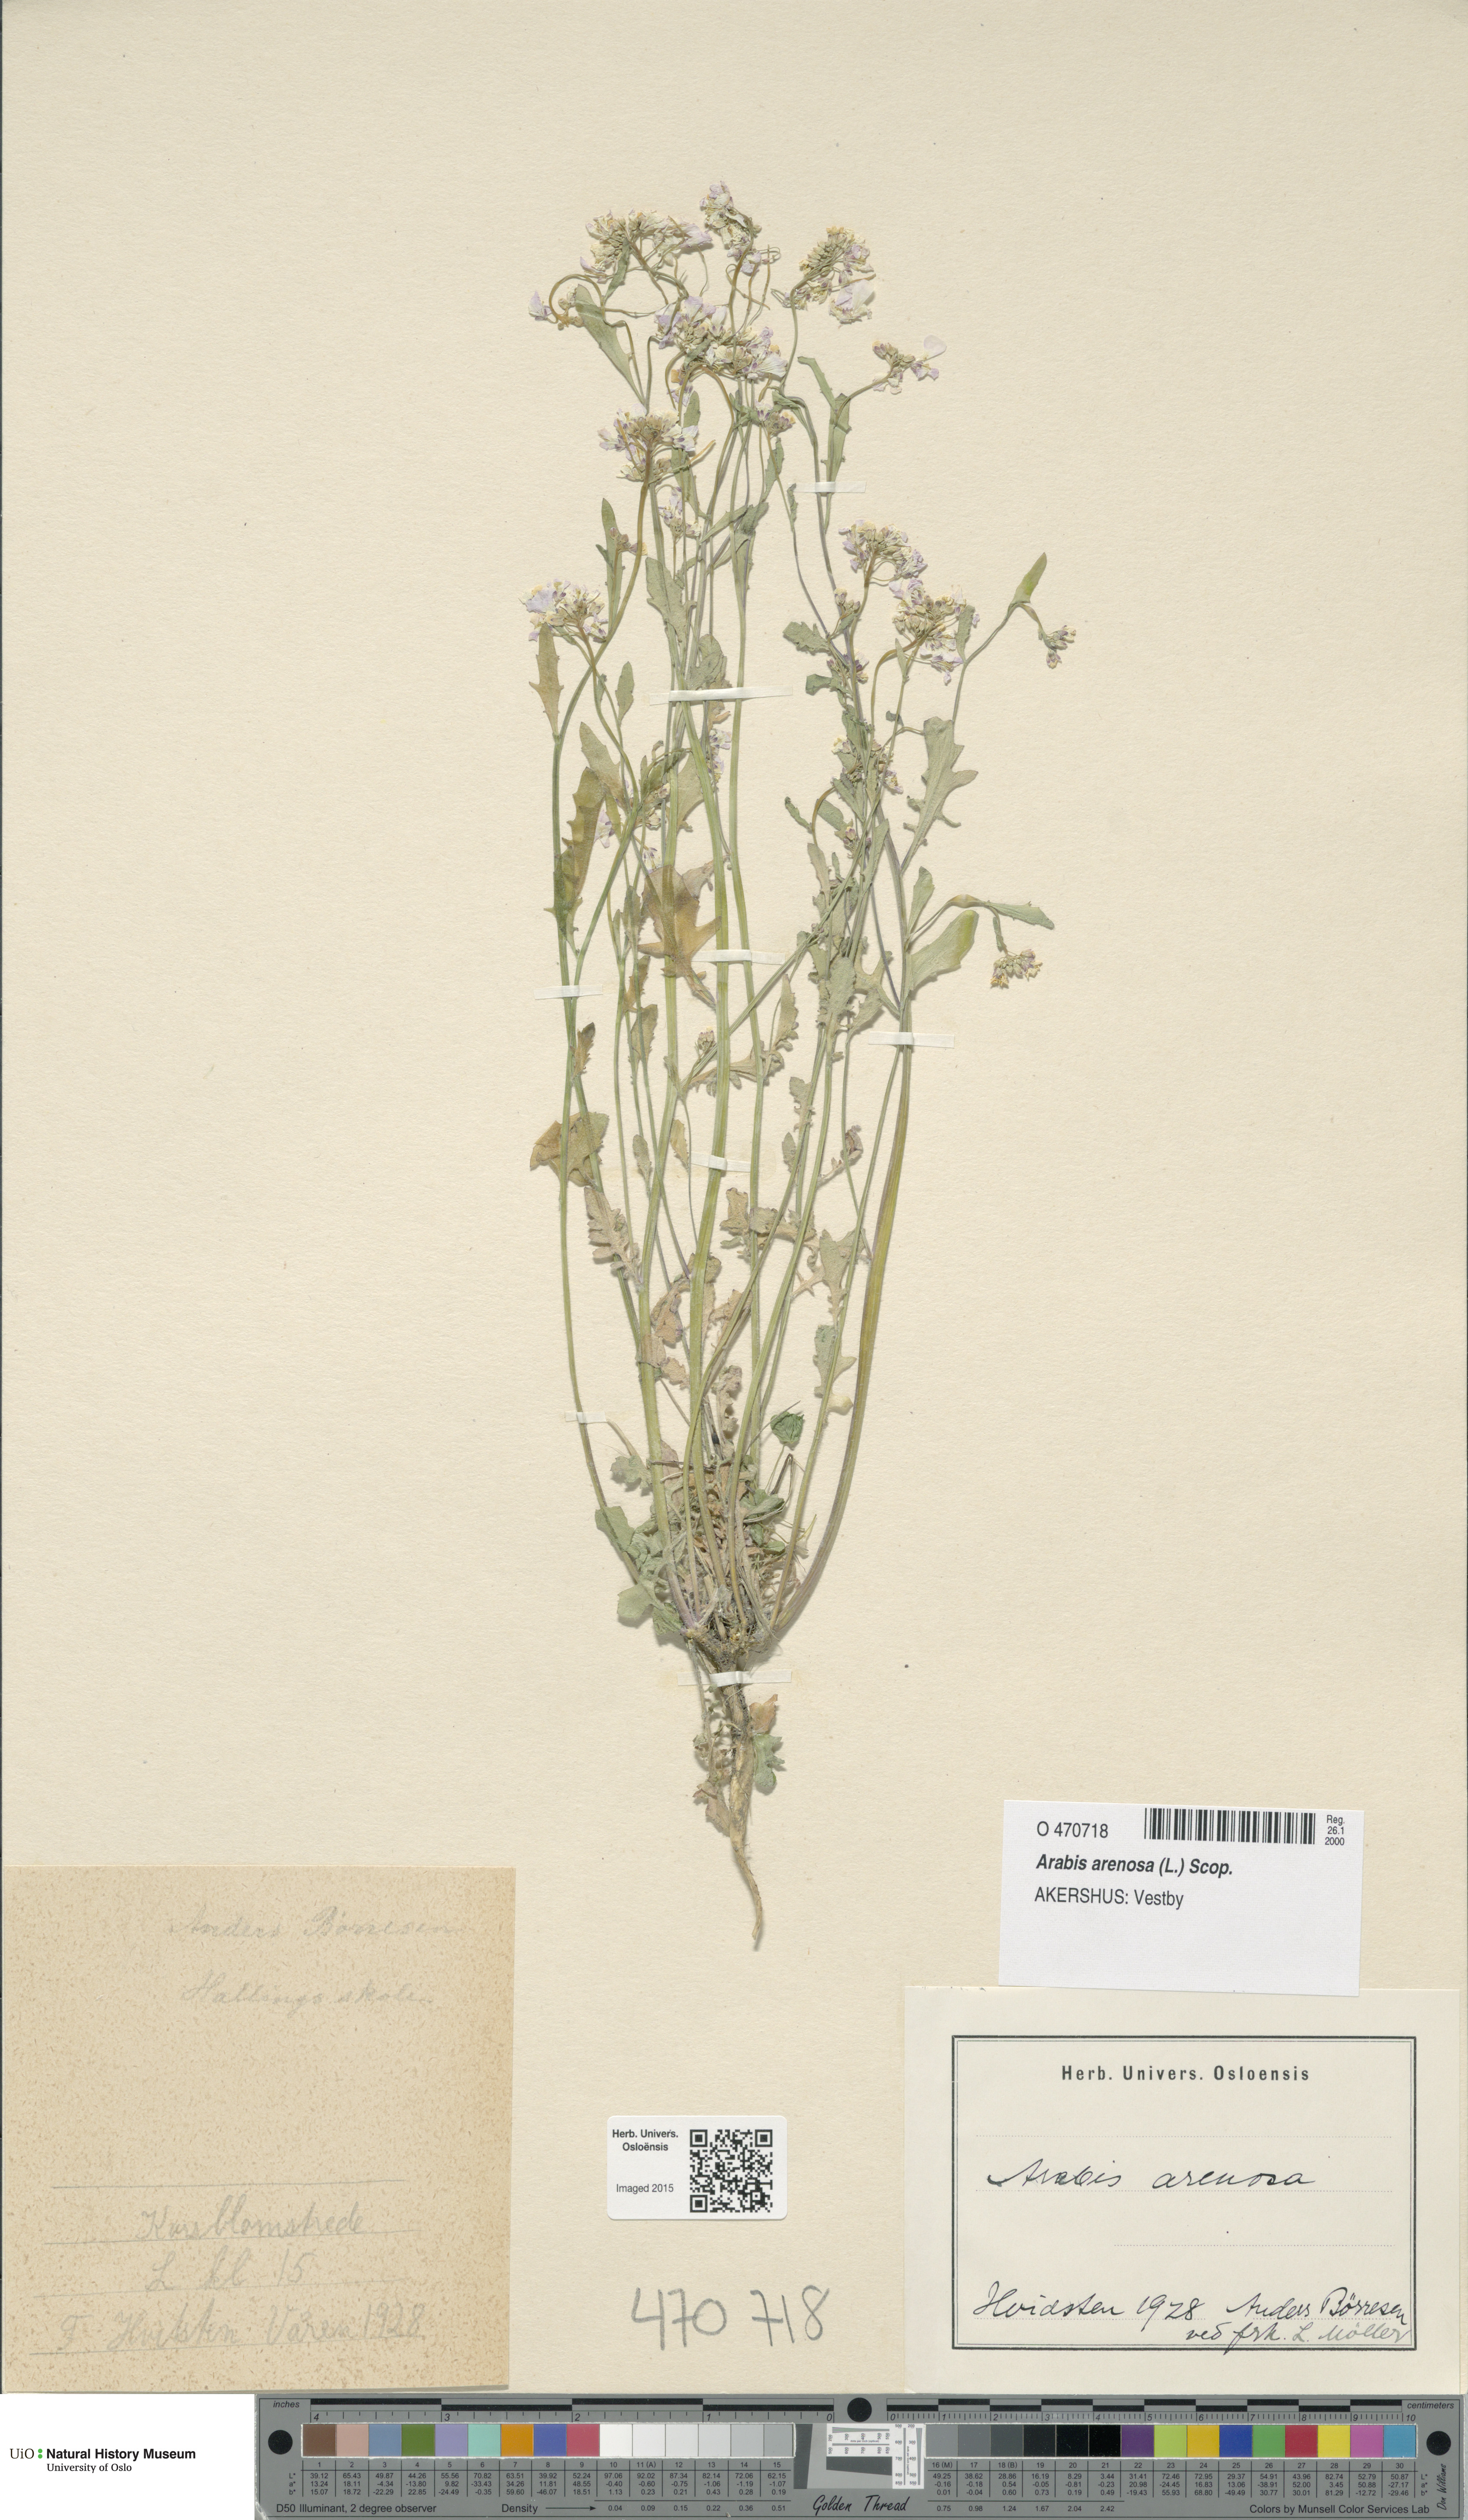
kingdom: Plantae
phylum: Tracheophyta
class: Magnoliopsida
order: Brassicales
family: Brassicaceae
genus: Arabidopsis
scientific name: Arabidopsis arenosa
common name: Sand rock-cress
